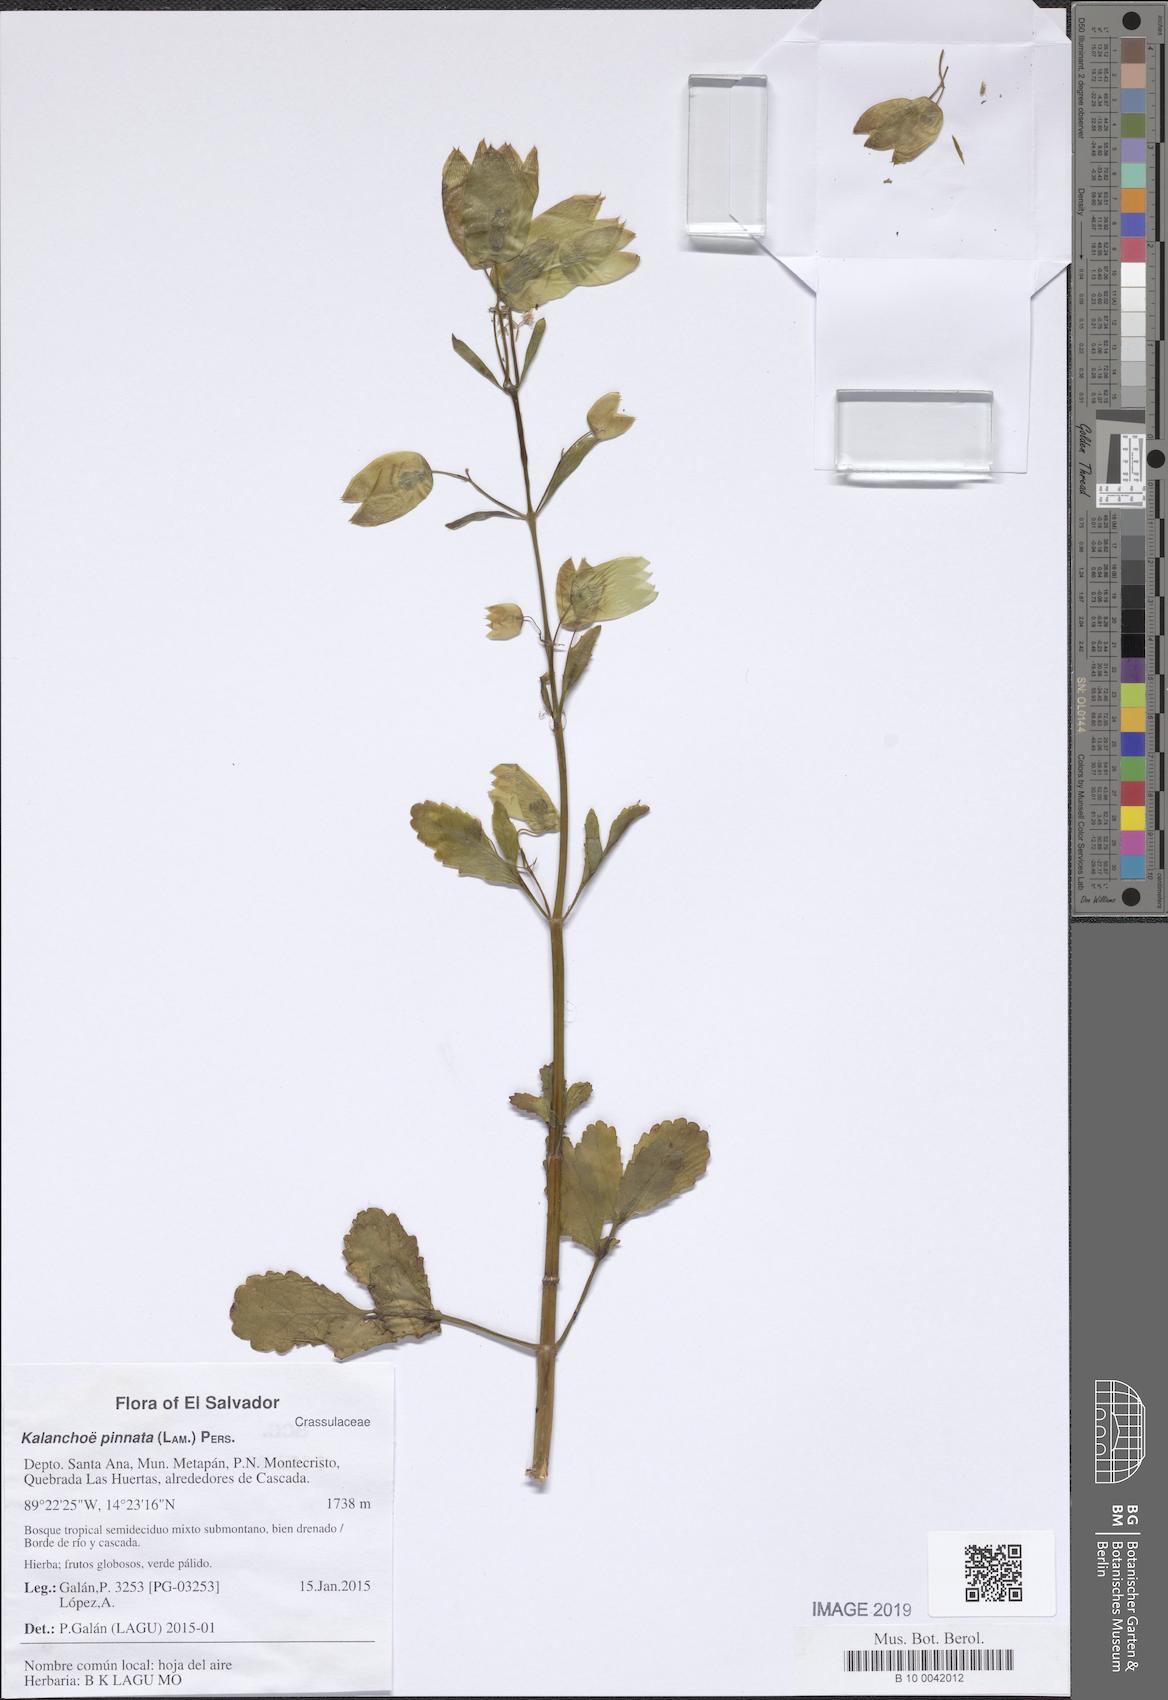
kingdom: Plantae
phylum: Tracheophyta
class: Magnoliopsida
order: Saxifragales
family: Crassulaceae
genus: Kalanchoe
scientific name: Kalanchoe pinnata
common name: Cathedral bells
